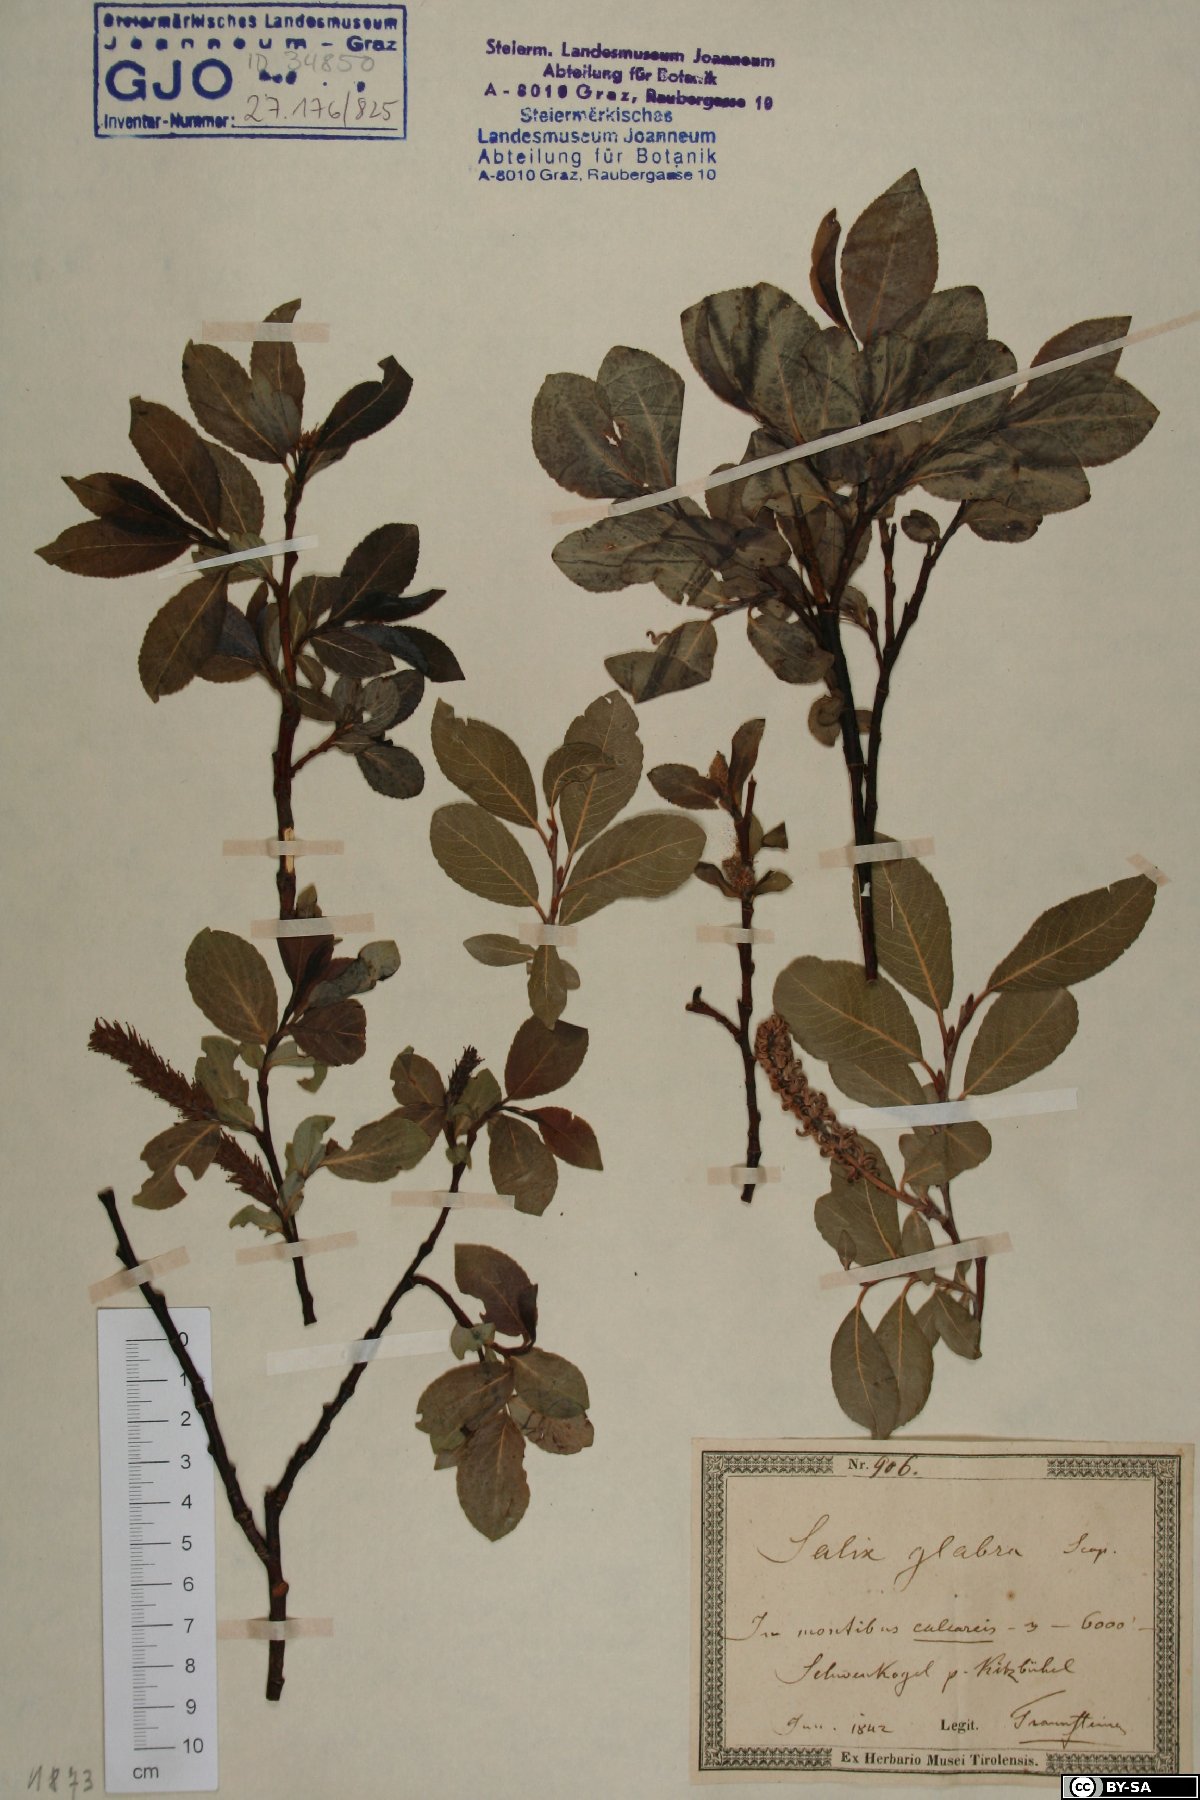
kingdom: Plantae
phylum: Tracheophyta
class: Magnoliopsida
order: Malpighiales
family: Salicaceae
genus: Salix
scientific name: Salix glabra
